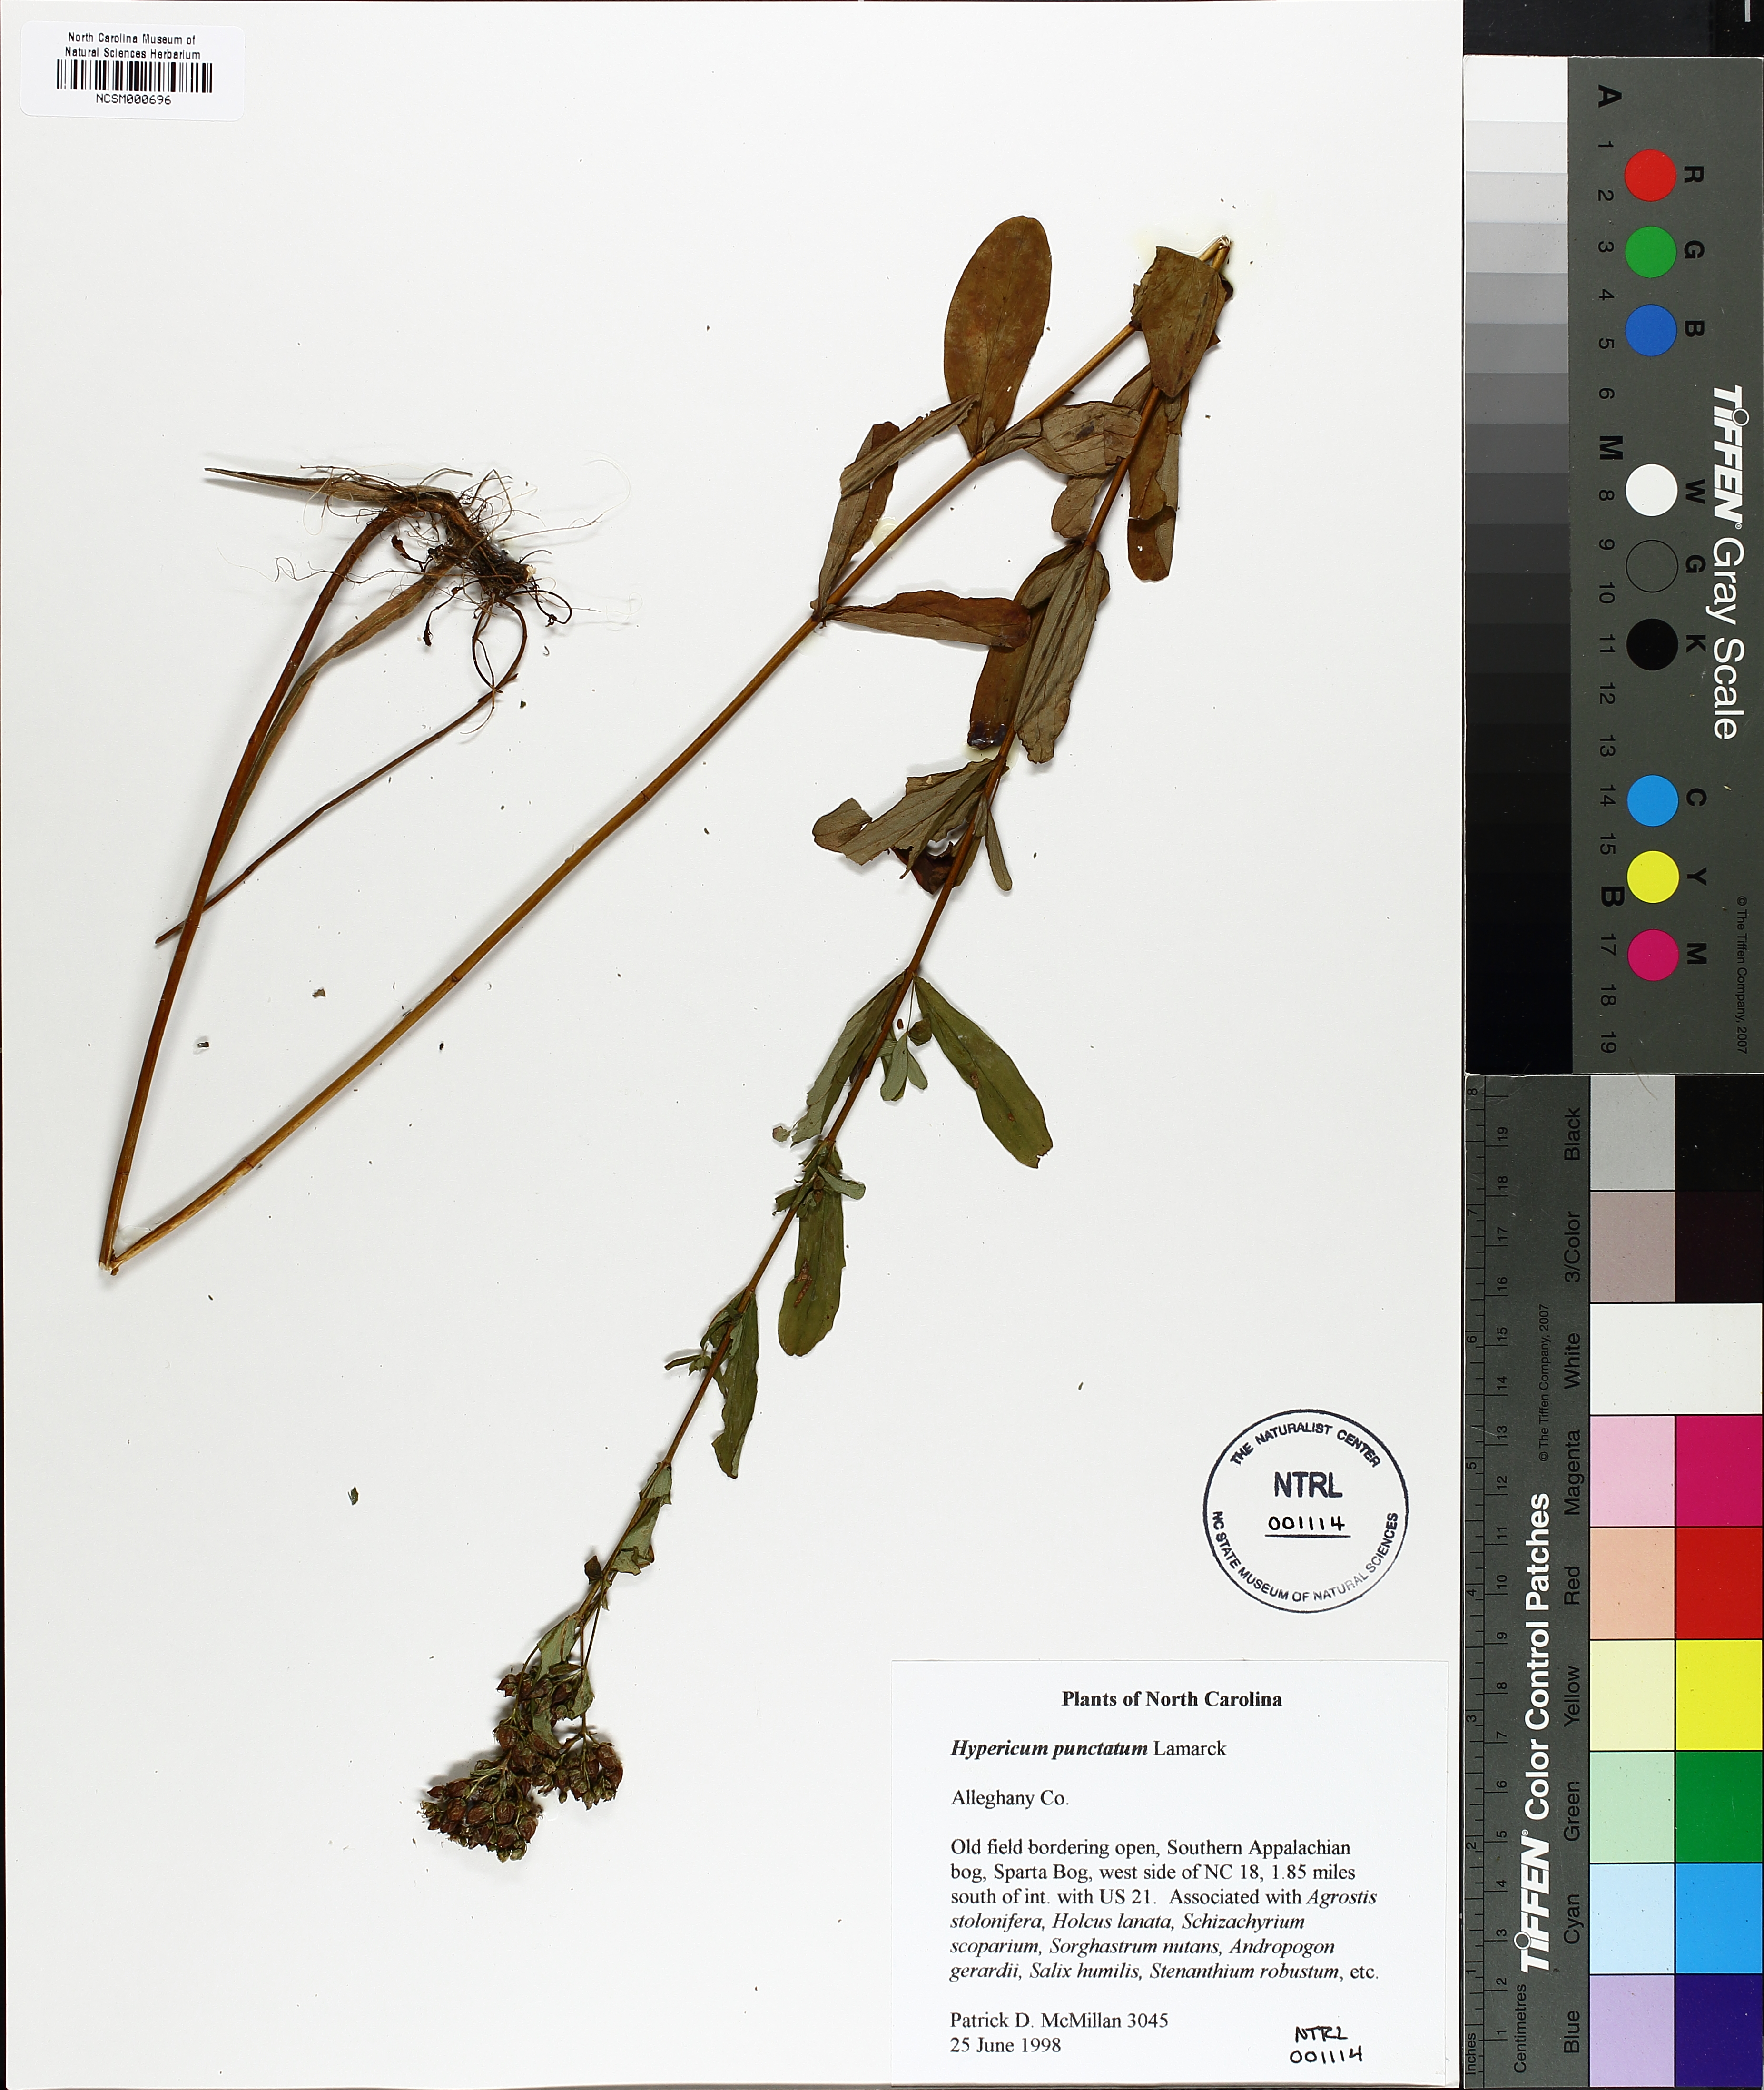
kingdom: Plantae
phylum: Tracheophyta
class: Magnoliopsida
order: Malpighiales
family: Hypericaceae
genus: Hypericum
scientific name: Hypericum punctatum
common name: Spotted st. john's-wort
